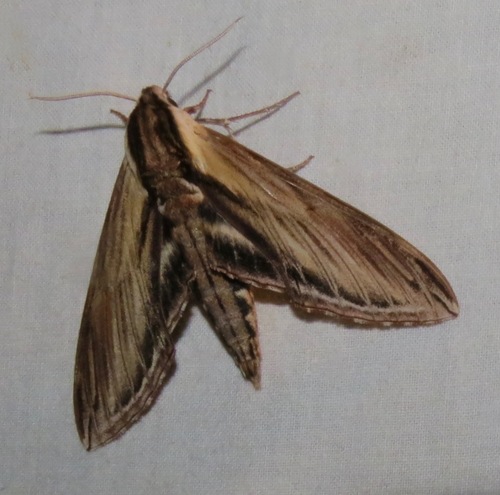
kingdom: Animalia
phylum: Arthropoda
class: Insecta
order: Lepidoptera
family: Sphingidae
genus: Sphinx
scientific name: Sphinx kalmiae
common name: Laurel sphinx
